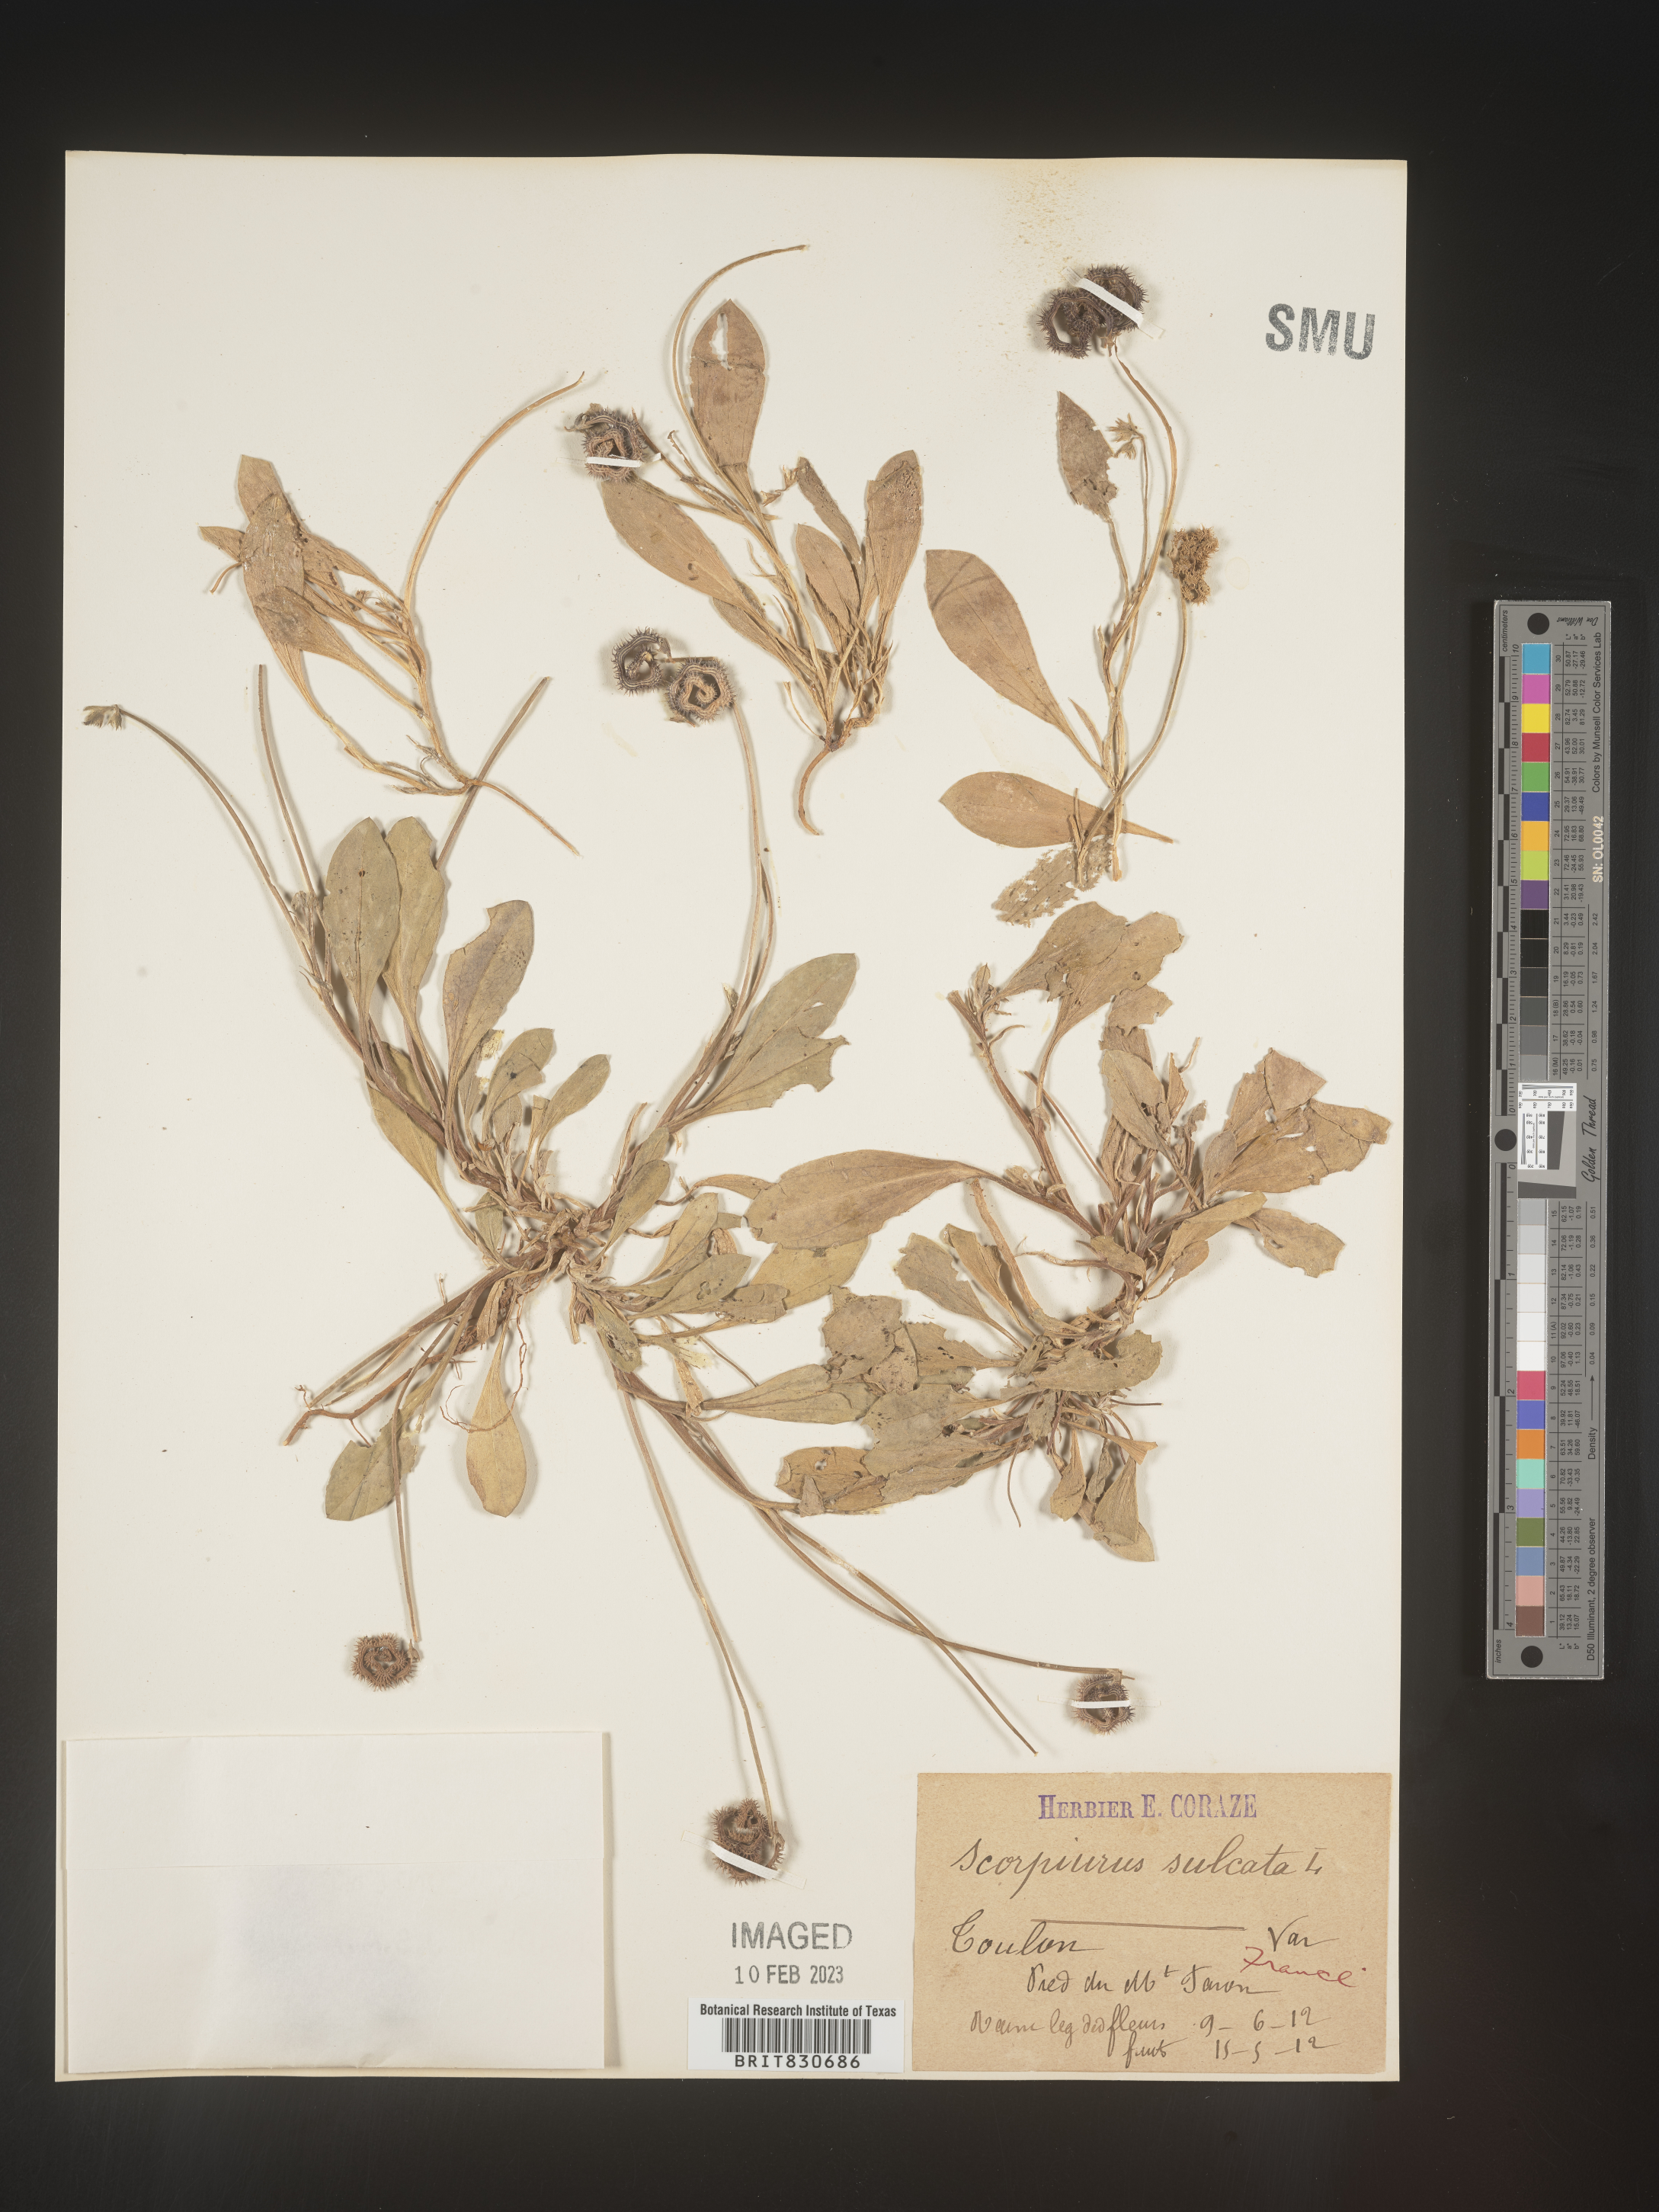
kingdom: Plantae
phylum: Tracheophyta
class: Magnoliopsida
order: Fabales
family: Fabaceae
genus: Scorpiurus
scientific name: Scorpiurus
